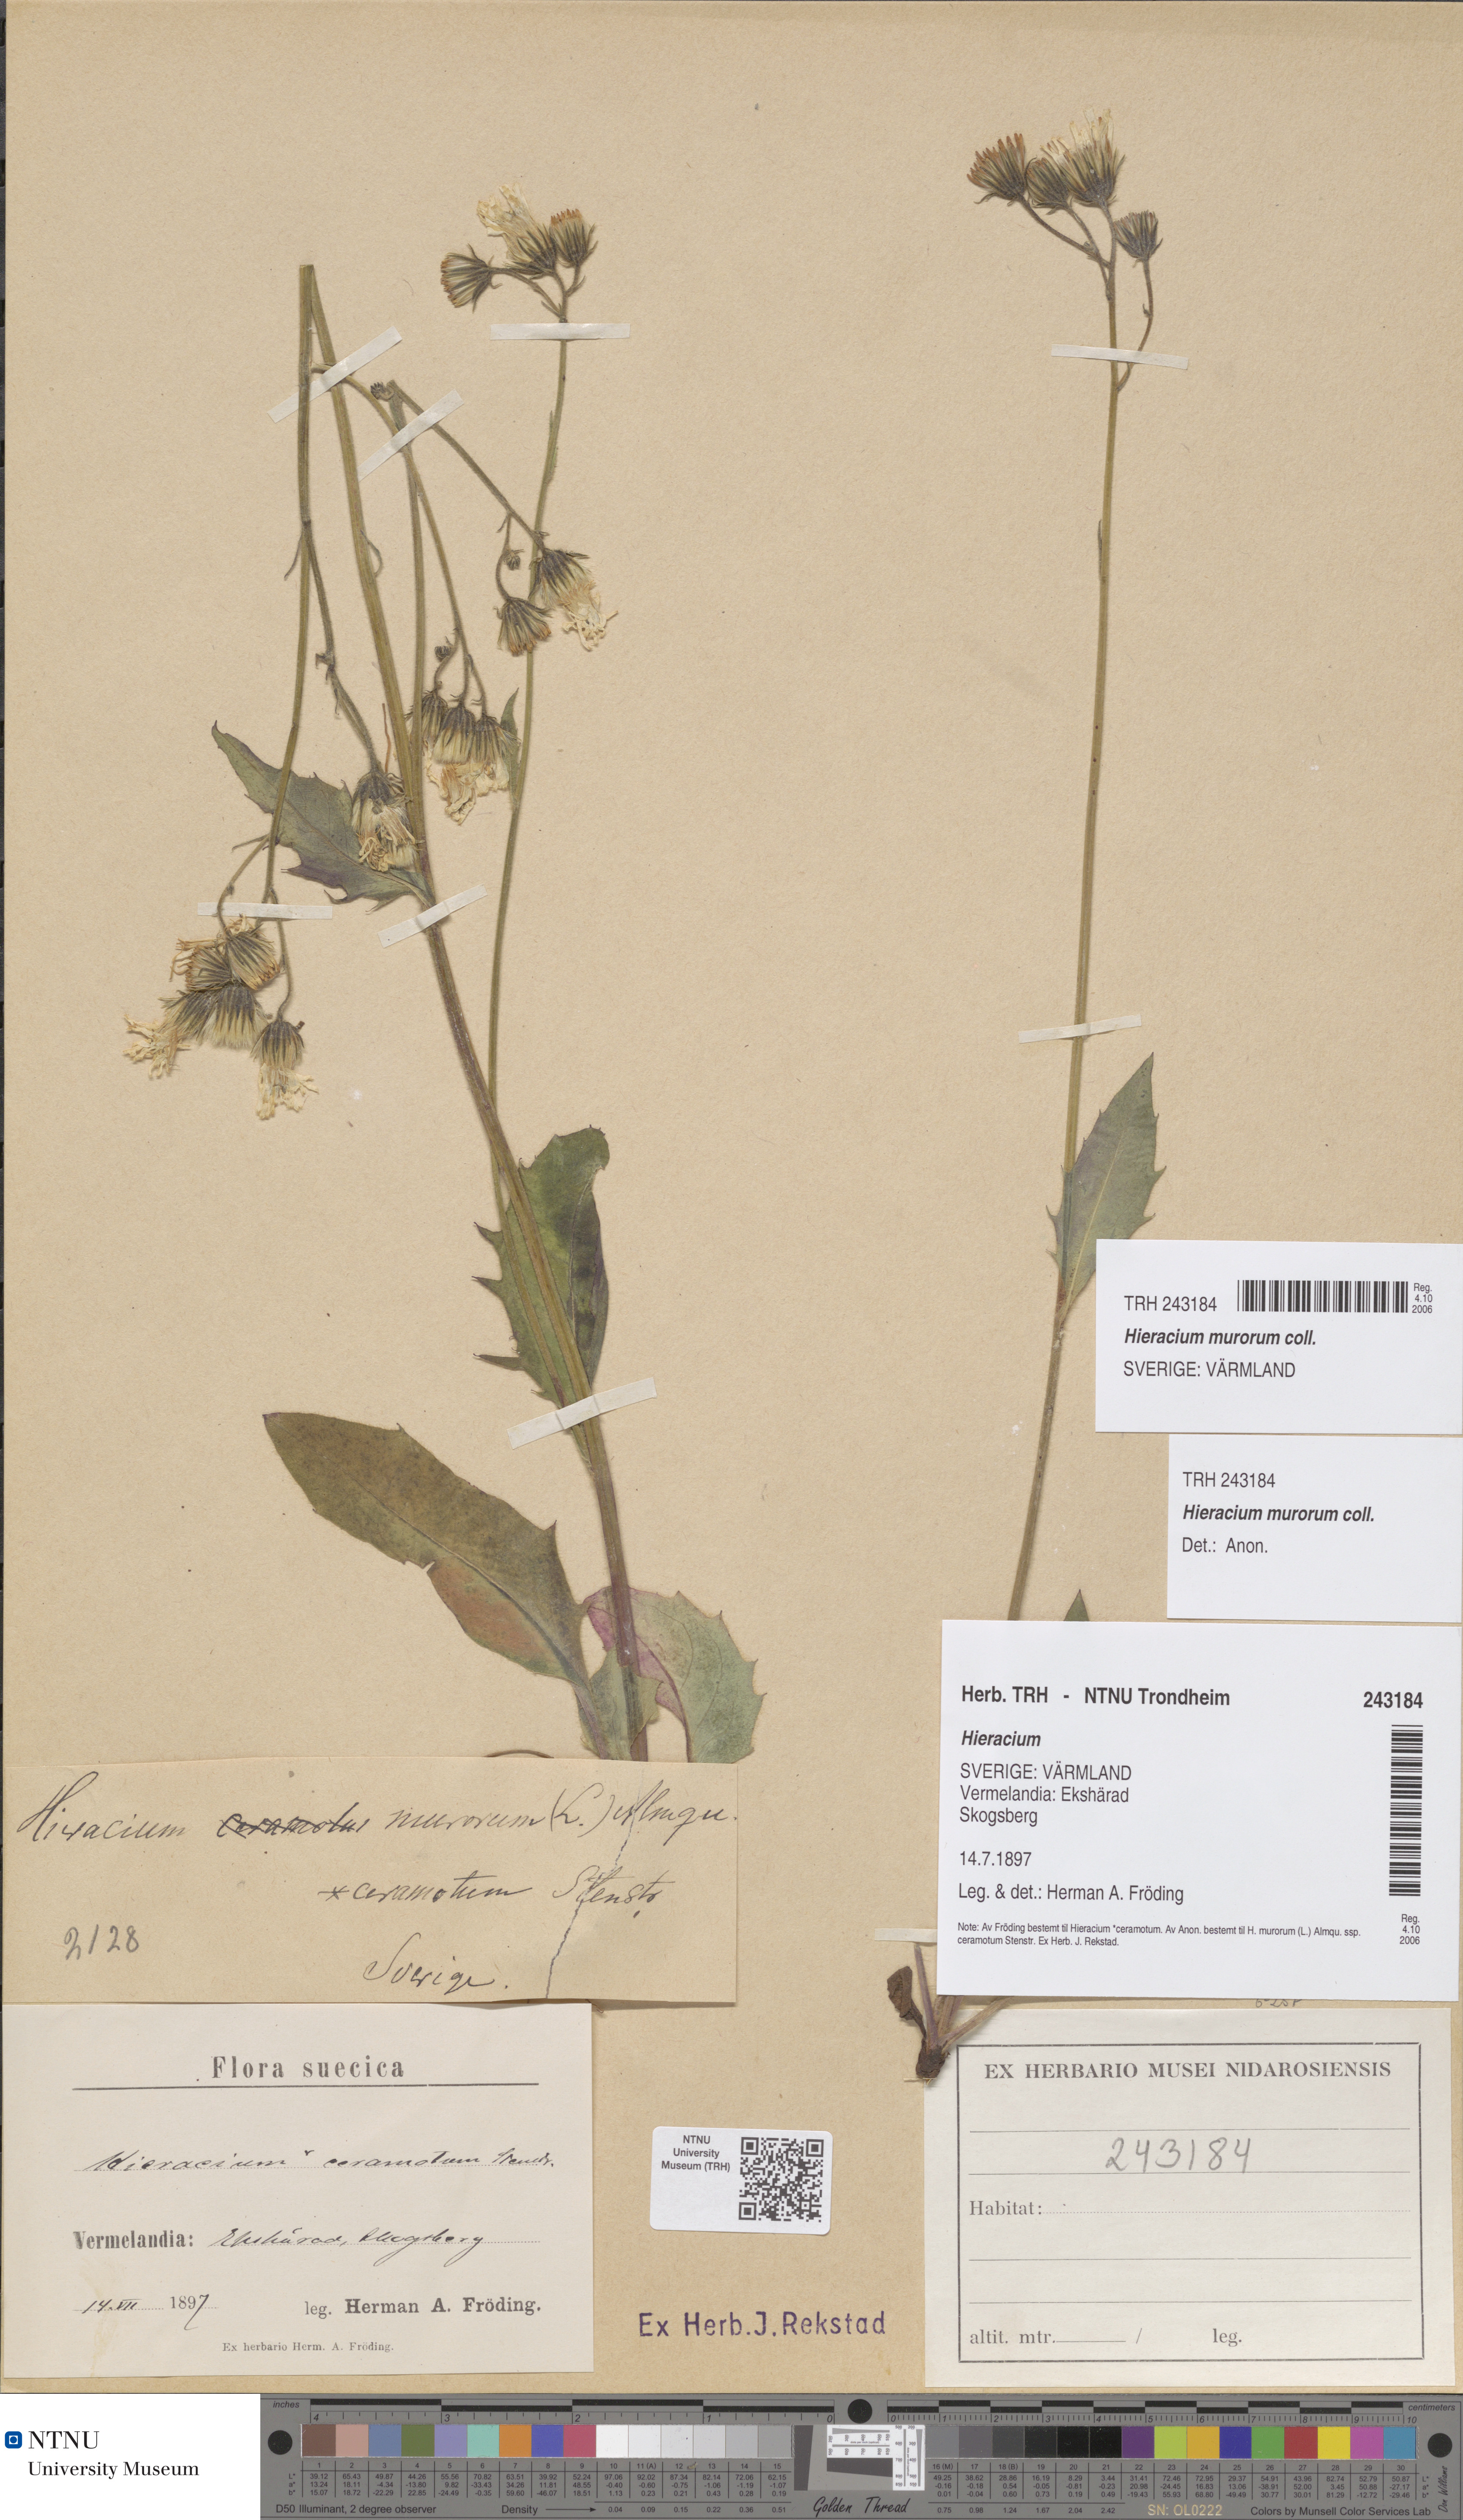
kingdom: Plantae
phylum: Tracheophyta
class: Magnoliopsida
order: Asterales
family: Asteraceae
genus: Hieracium
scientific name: Hieracium murorum
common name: Wall hawkweed
